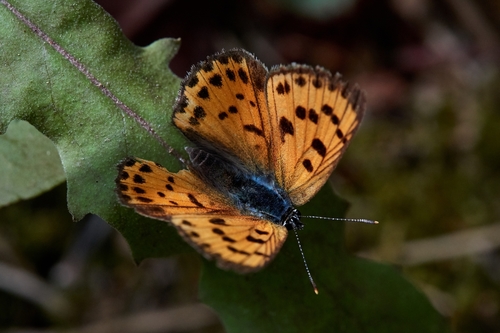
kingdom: Animalia
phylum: Arthropoda
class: Insecta
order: Lepidoptera
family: Lycaenidae
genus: Lycaena
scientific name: Lycaena alciphron
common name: Purple-shot copper
